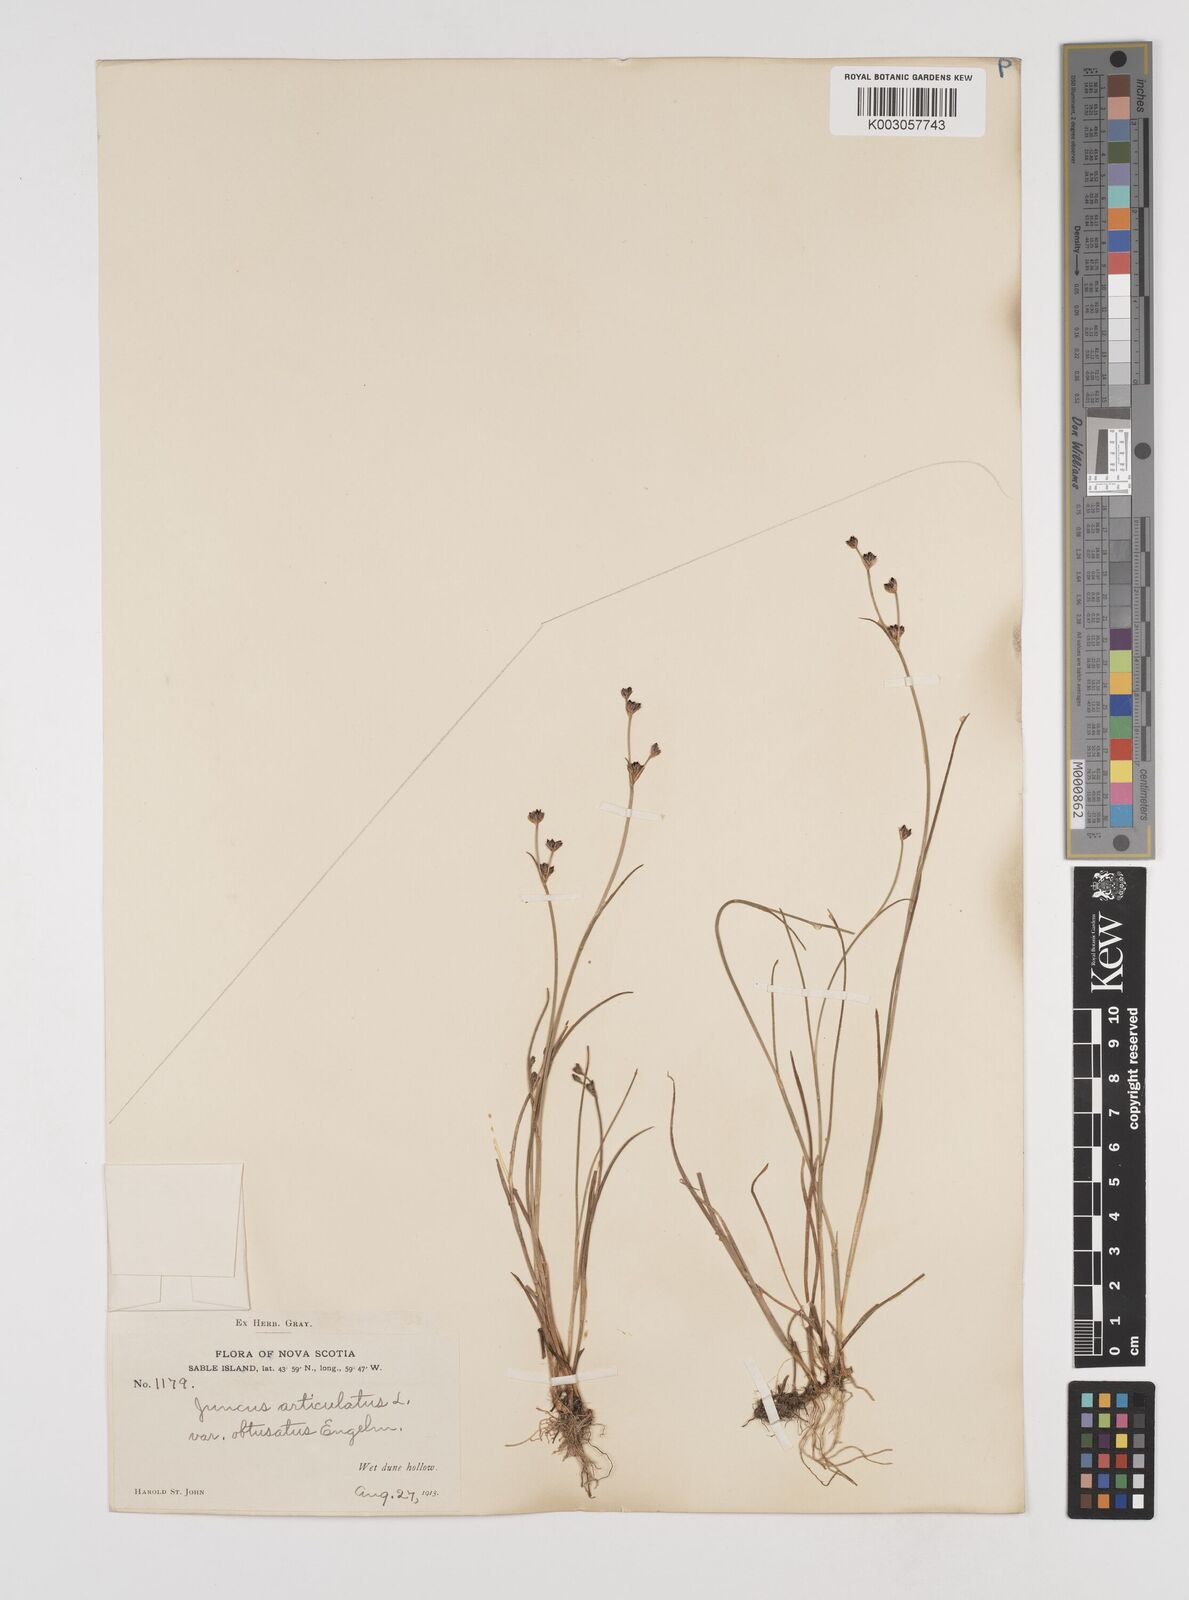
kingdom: Plantae
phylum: Tracheophyta
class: Liliopsida
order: Poales
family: Juncaceae
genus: Juncus
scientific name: Juncus articulatus
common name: Jointed rush
